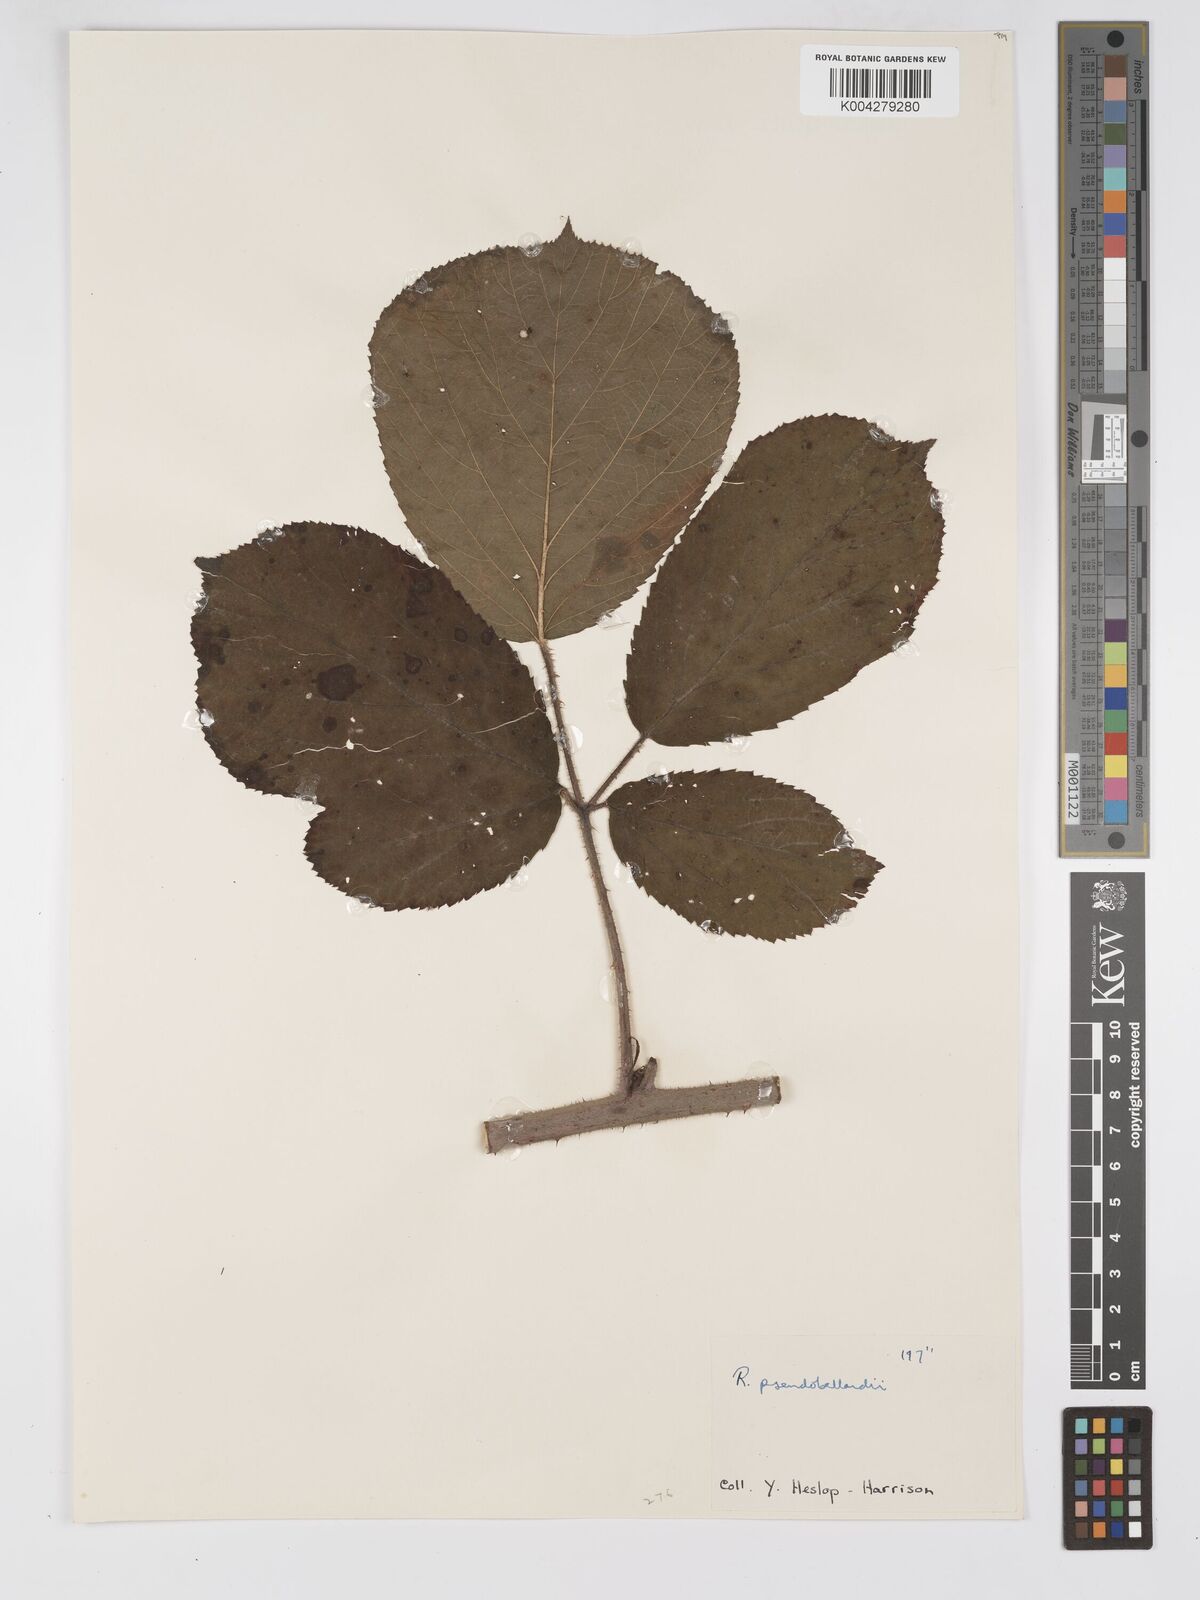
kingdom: Plantae
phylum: Tracheophyta
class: Magnoliopsida
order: Rosales
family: Rosaceae
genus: Rubus
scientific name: Rubus
